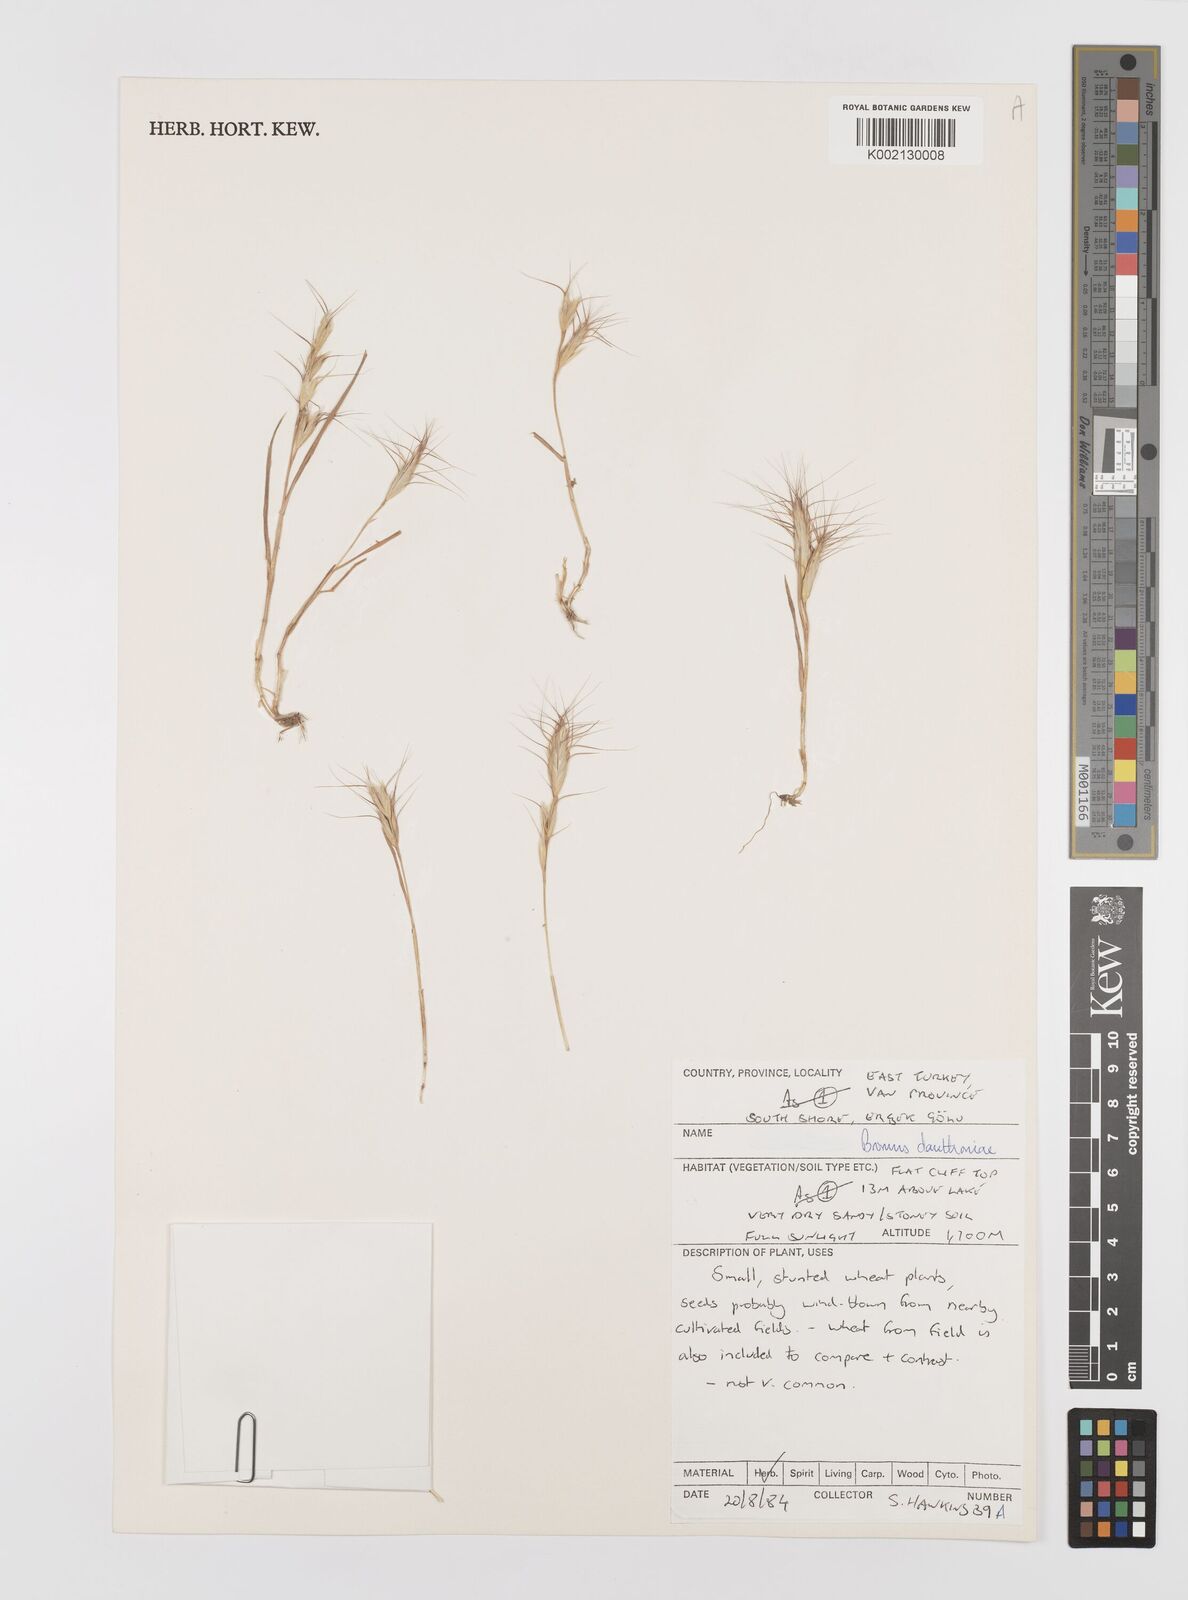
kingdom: Plantae
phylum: Tracheophyta
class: Liliopsida
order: Poales
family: Poaceae
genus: Bromus
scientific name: Bromus danthoniae
